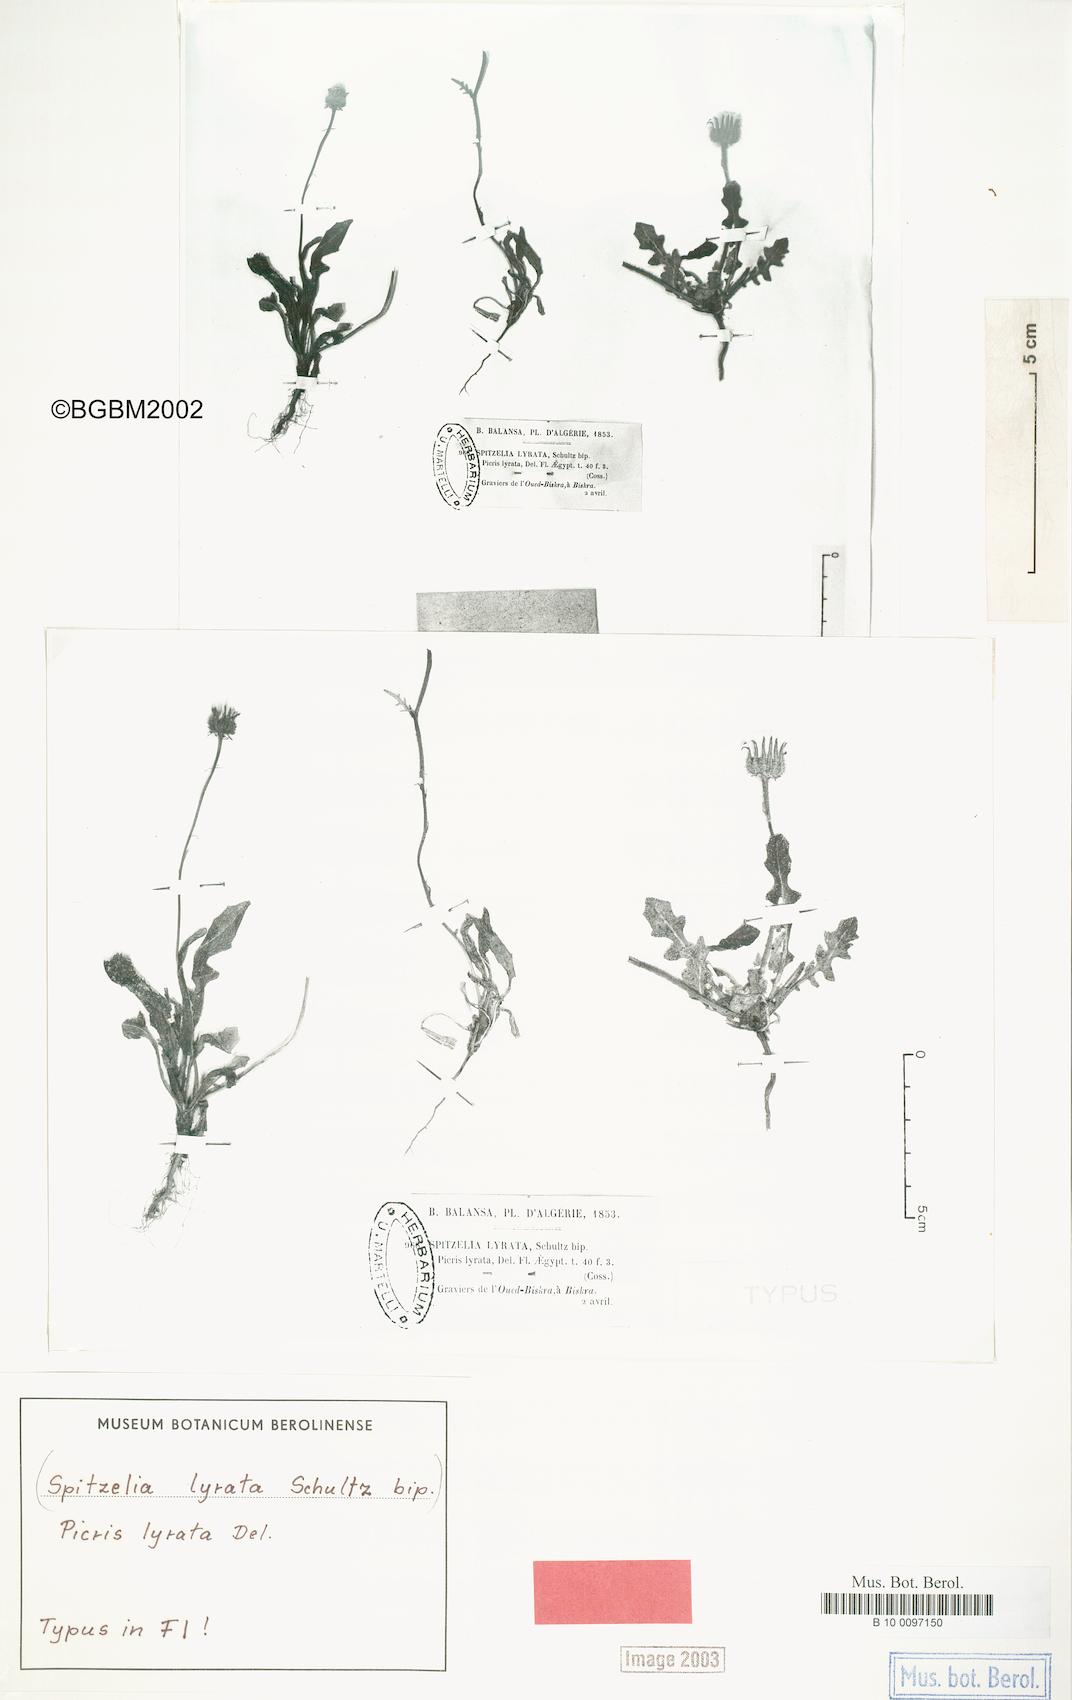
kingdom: Plantae
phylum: Tracheophyta
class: Magnoliopsida
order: Asterales
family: Asteraceae
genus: Picris
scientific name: Picris asplenioides
